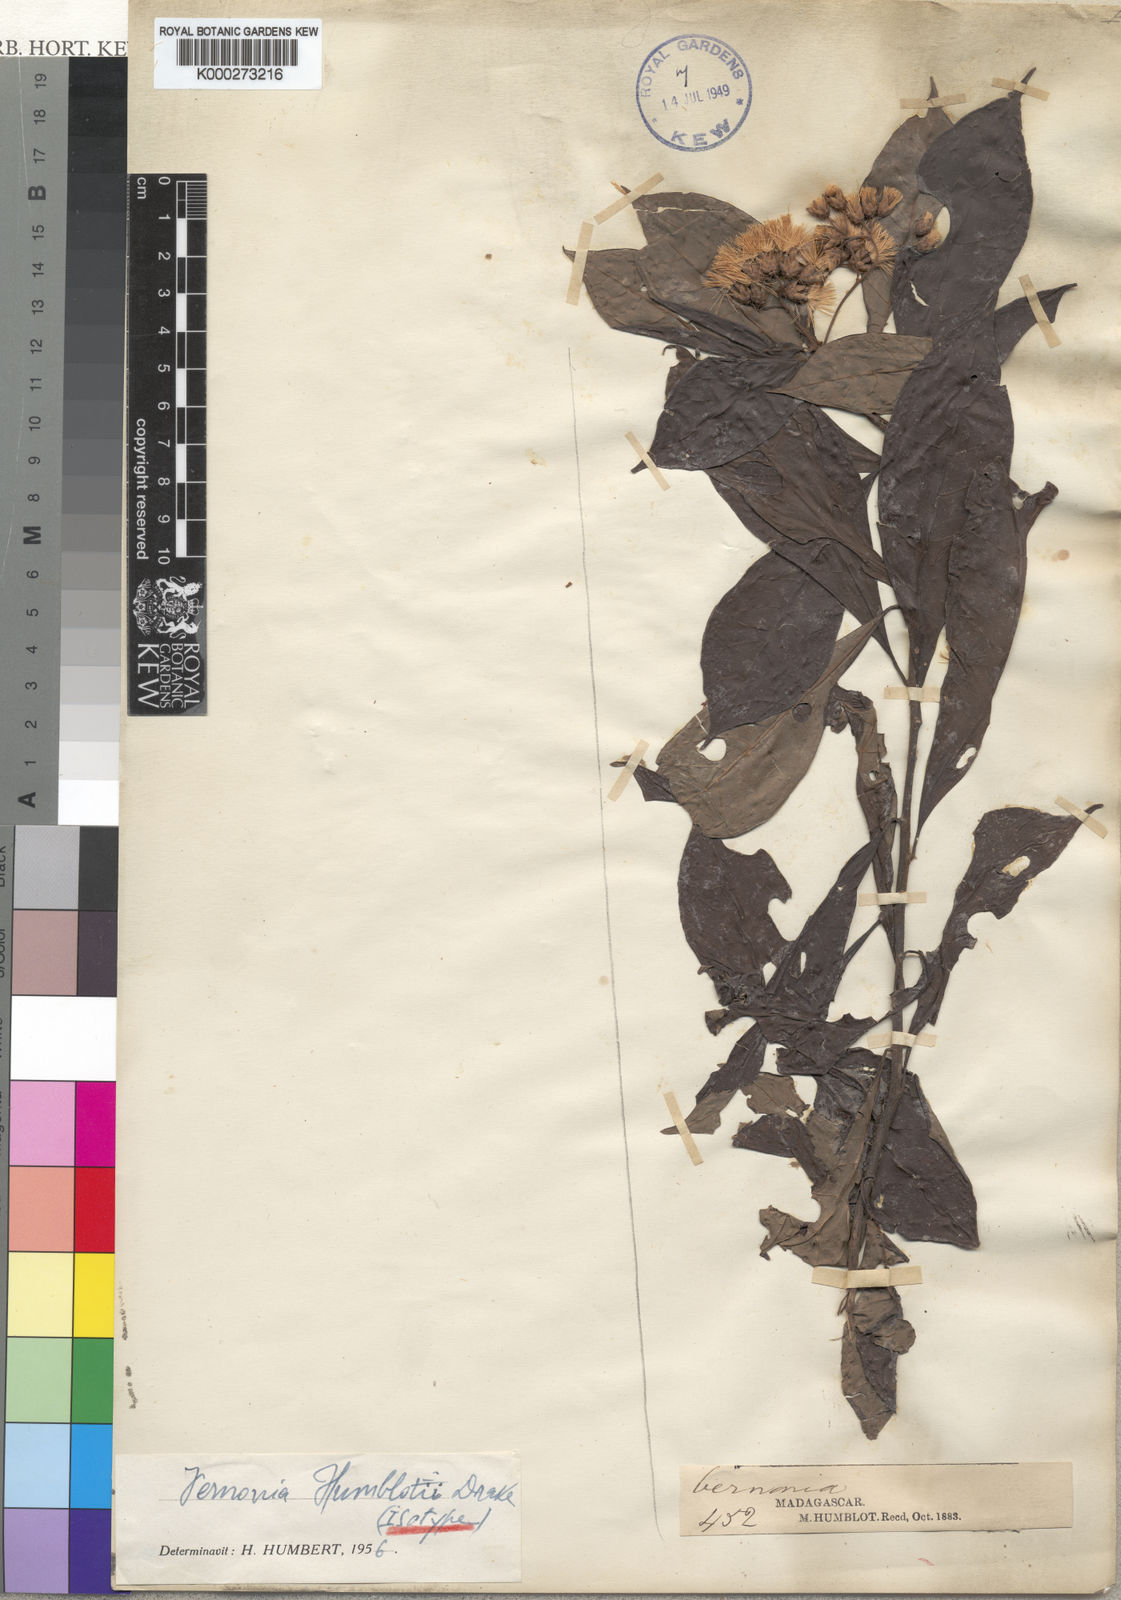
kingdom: Plantae
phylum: Tracheophyta
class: Magnoliopsida
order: Asterales
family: Asteraceae
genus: Gymnanthemum
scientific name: Gymnanthemum humblotii
